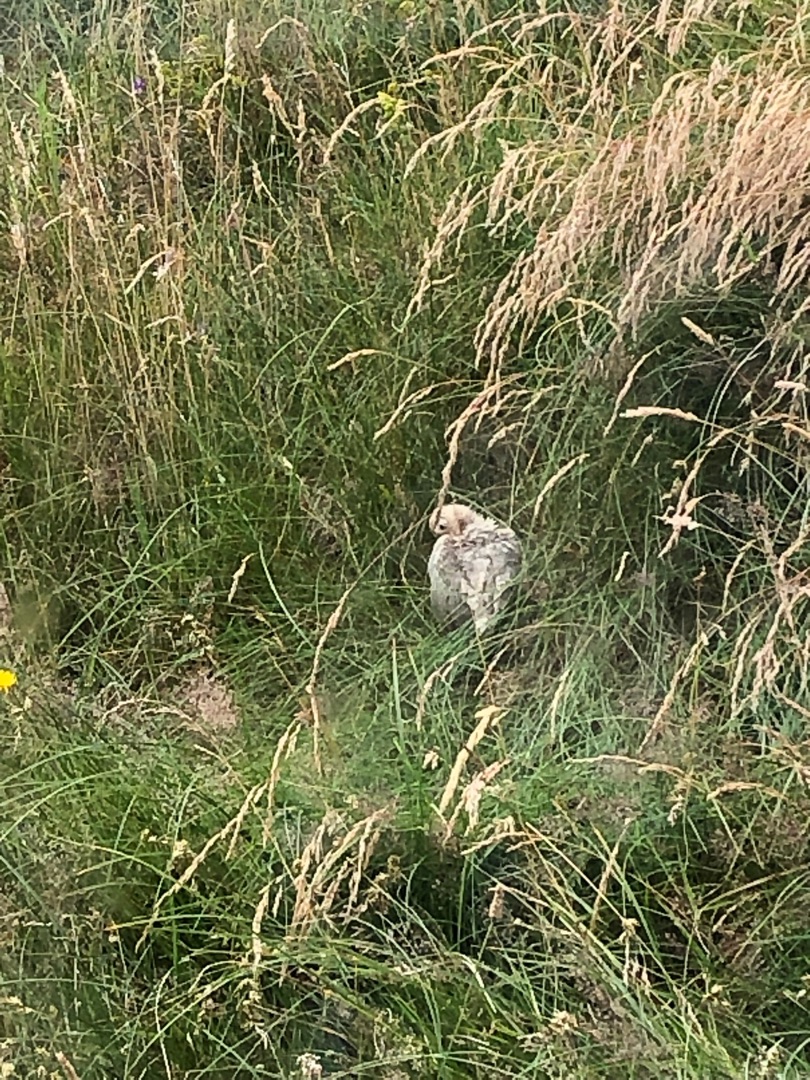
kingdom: Animalia
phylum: Chordata
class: Aves
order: Galliformes
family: Phasianidae
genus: Phasianus
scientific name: Phasianus colchicus
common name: Fasan
